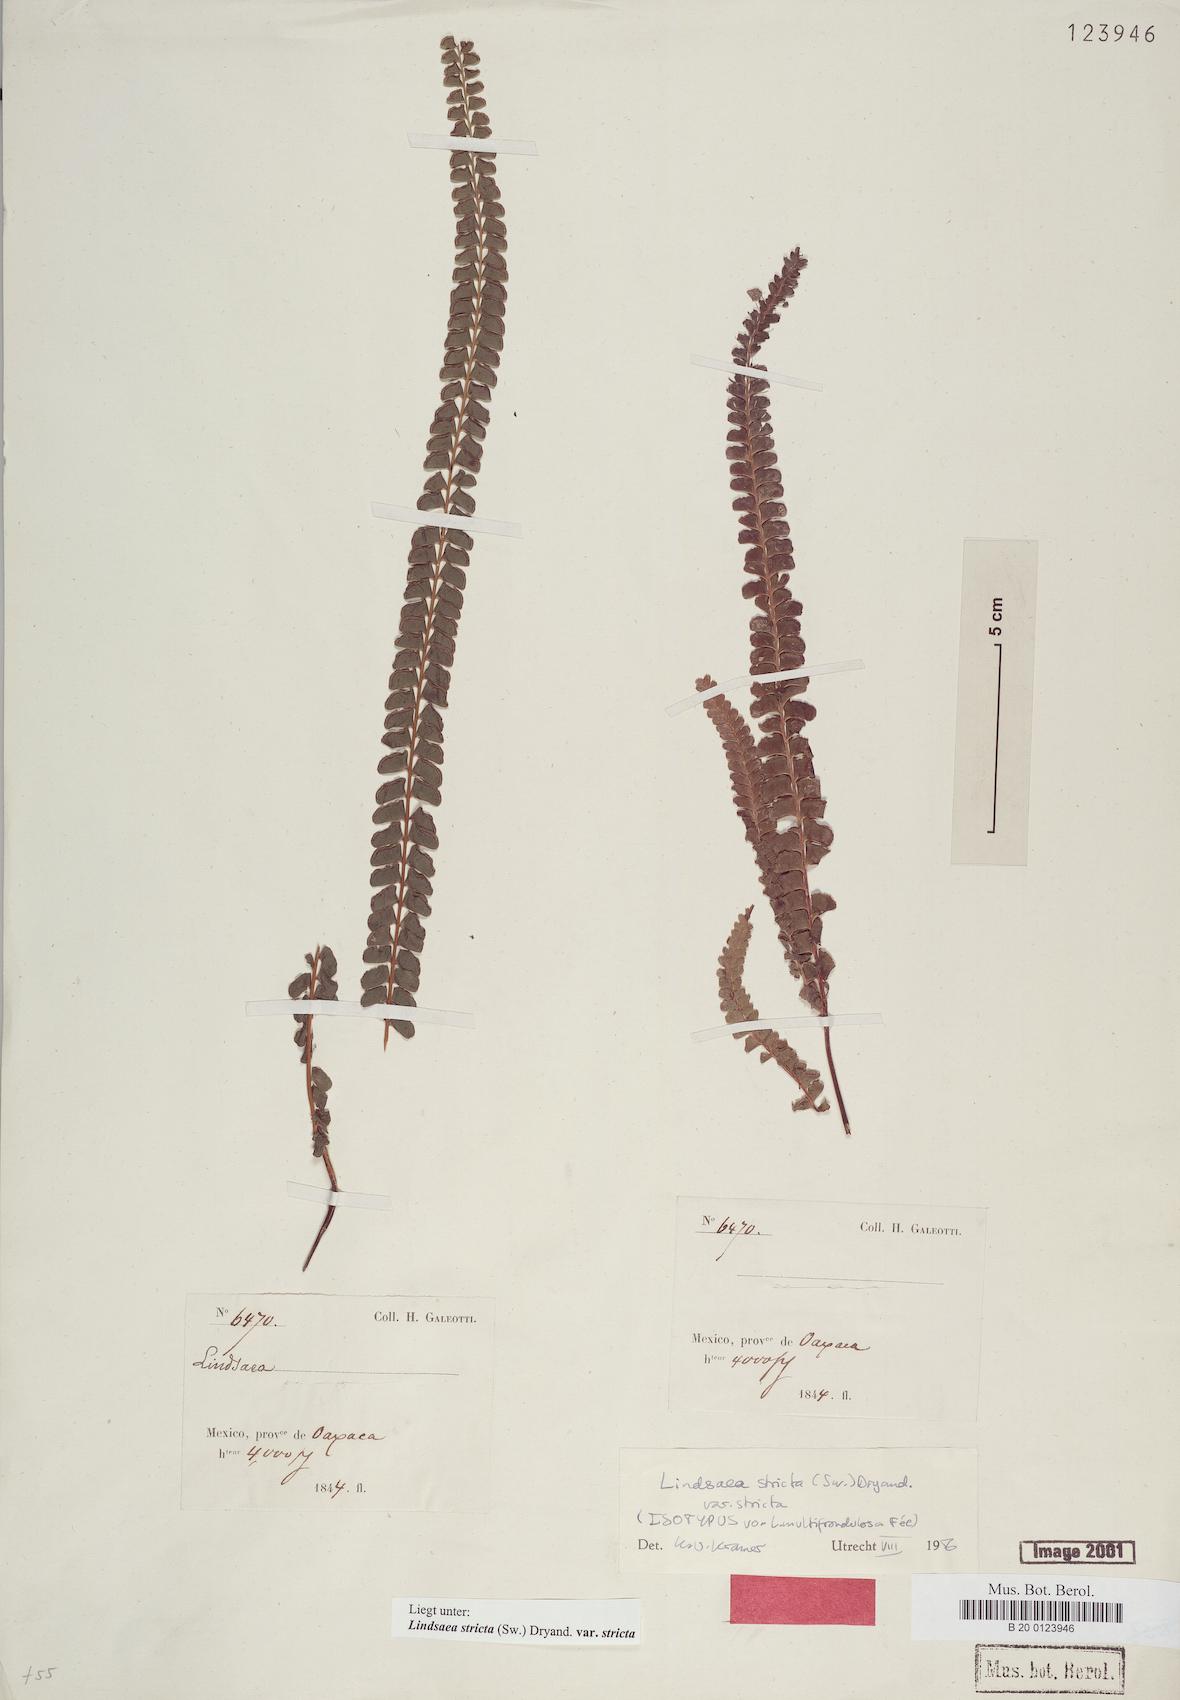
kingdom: Plantae
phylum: Tracheophyta
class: Polypodiopsida
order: Polypodiales
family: Lindsaeaceae
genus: Lindsaea
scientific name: Lindsaea stricta
